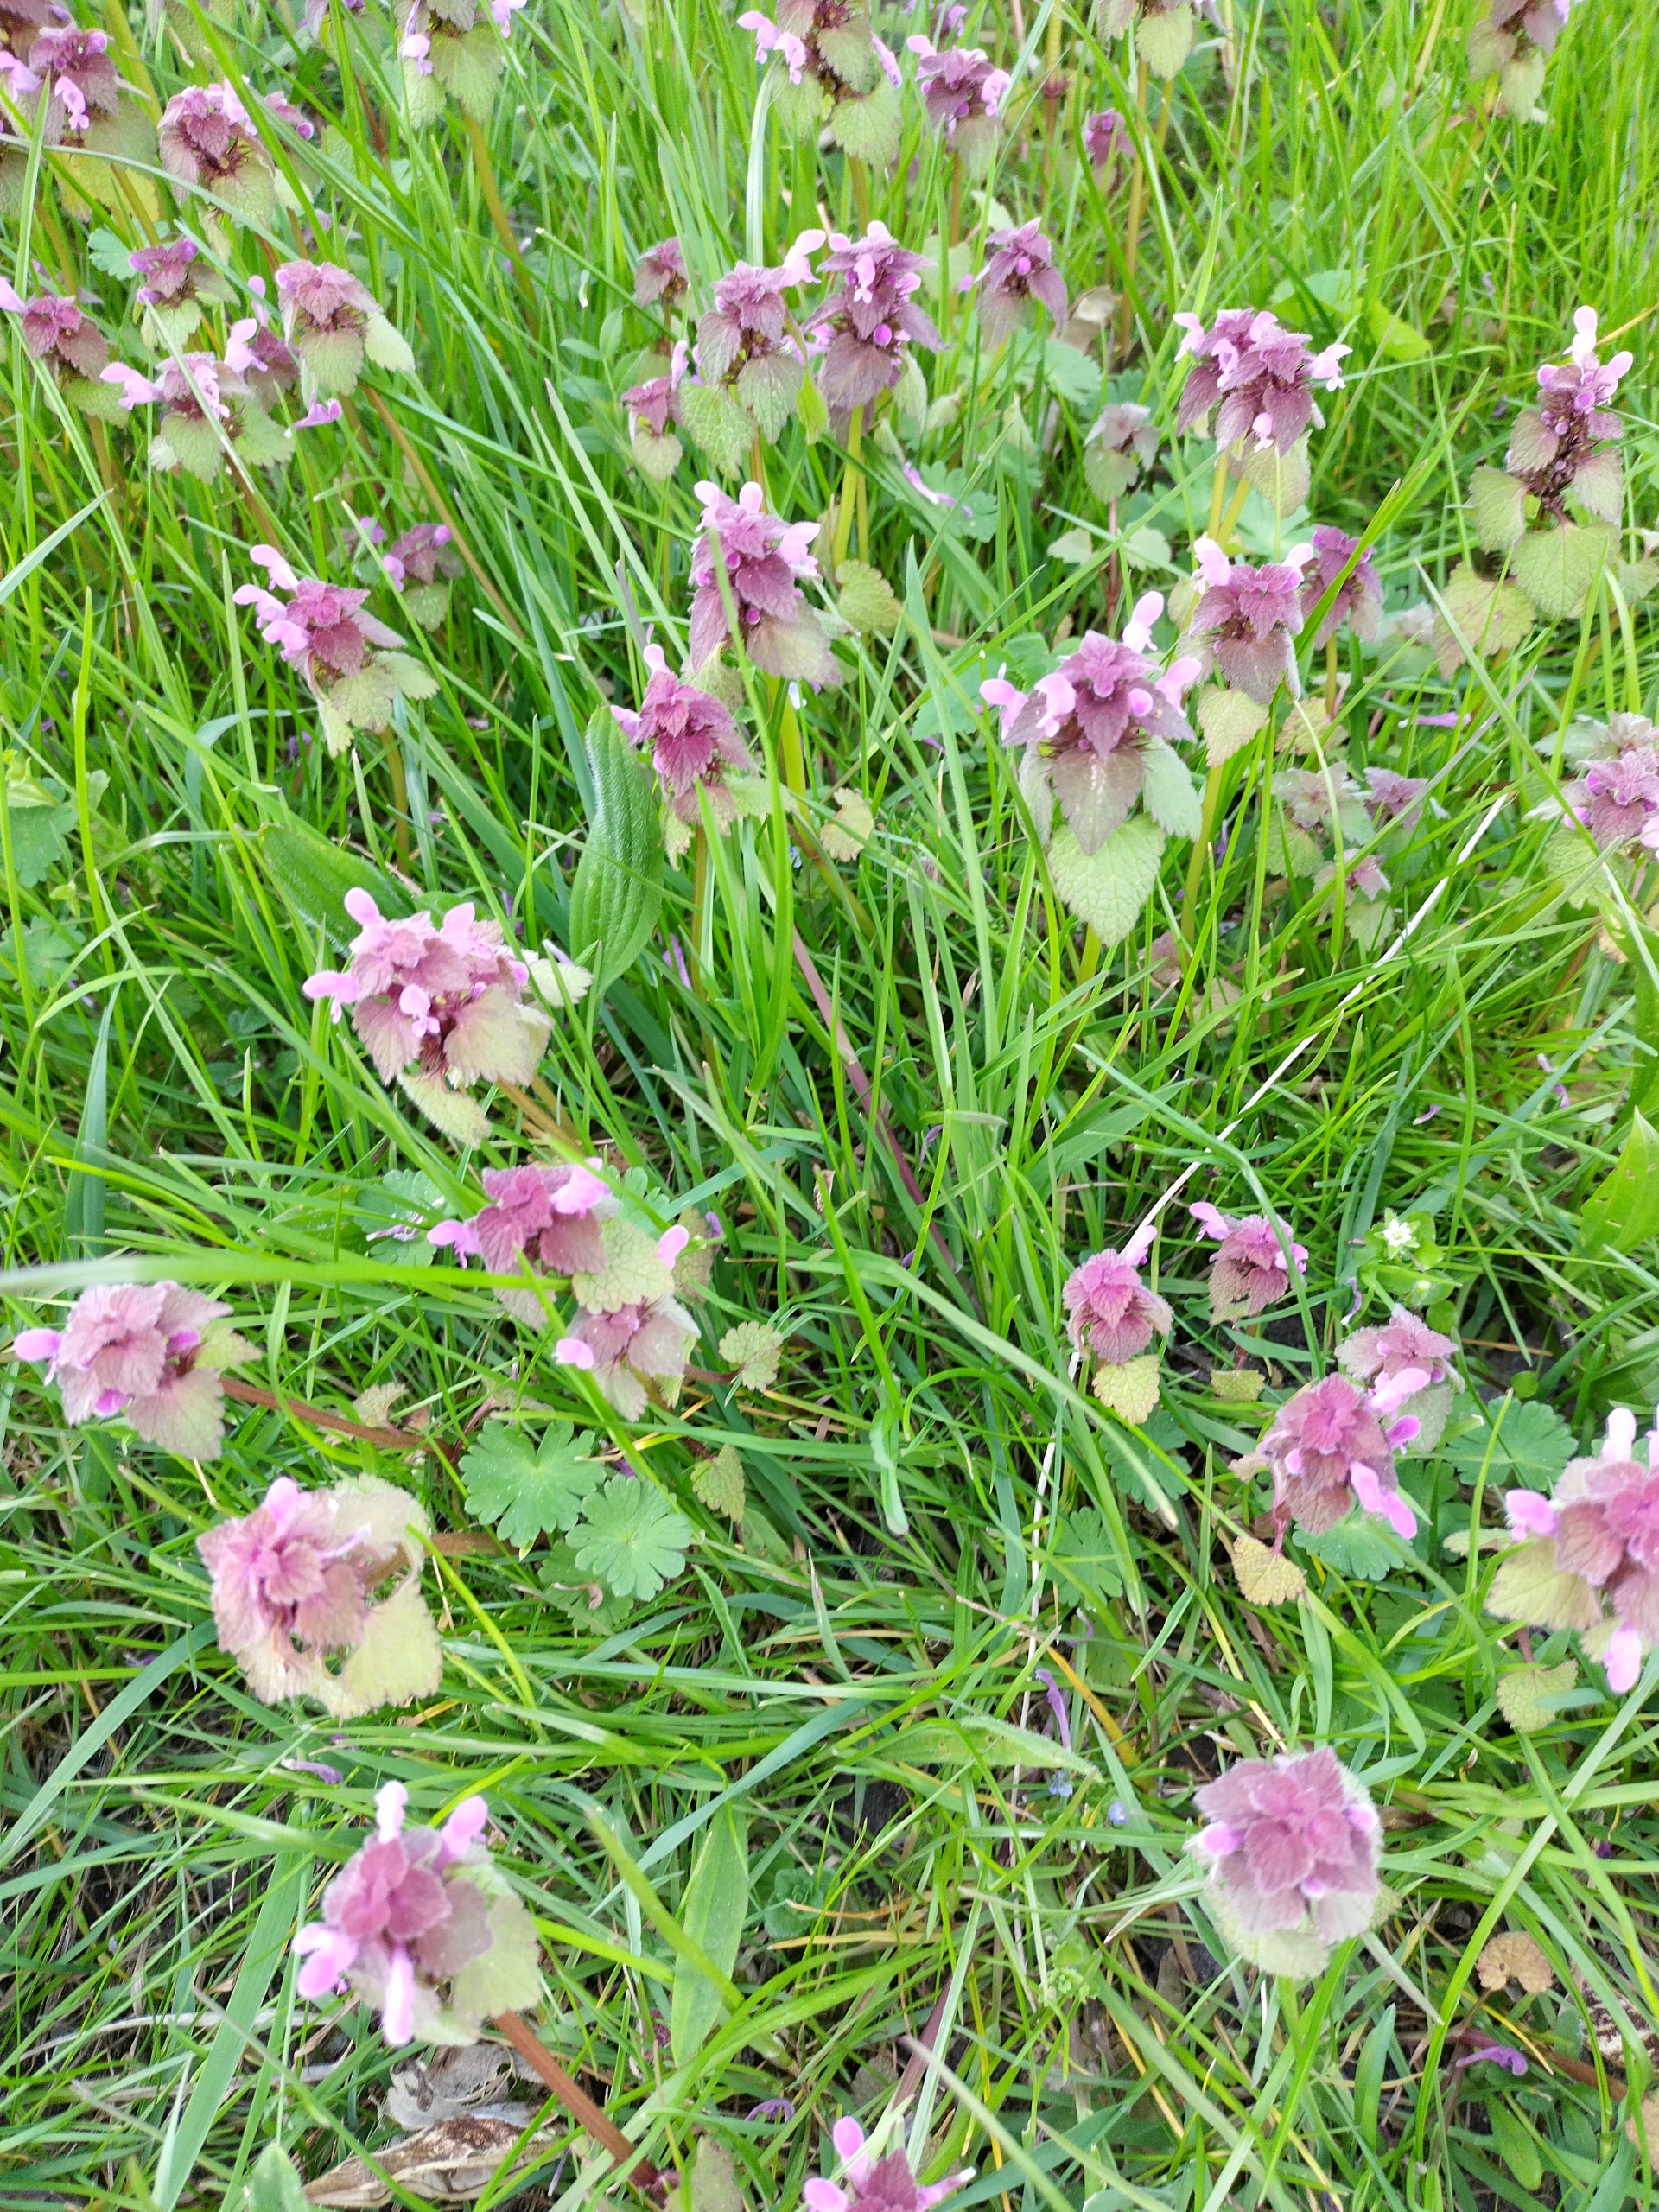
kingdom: Plantae
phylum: Tracheophyta
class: Magnoliopsida
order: Lamiales
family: Lamiaceae
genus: Lamium
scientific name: Lamium purpureum
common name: Rød tvetand
